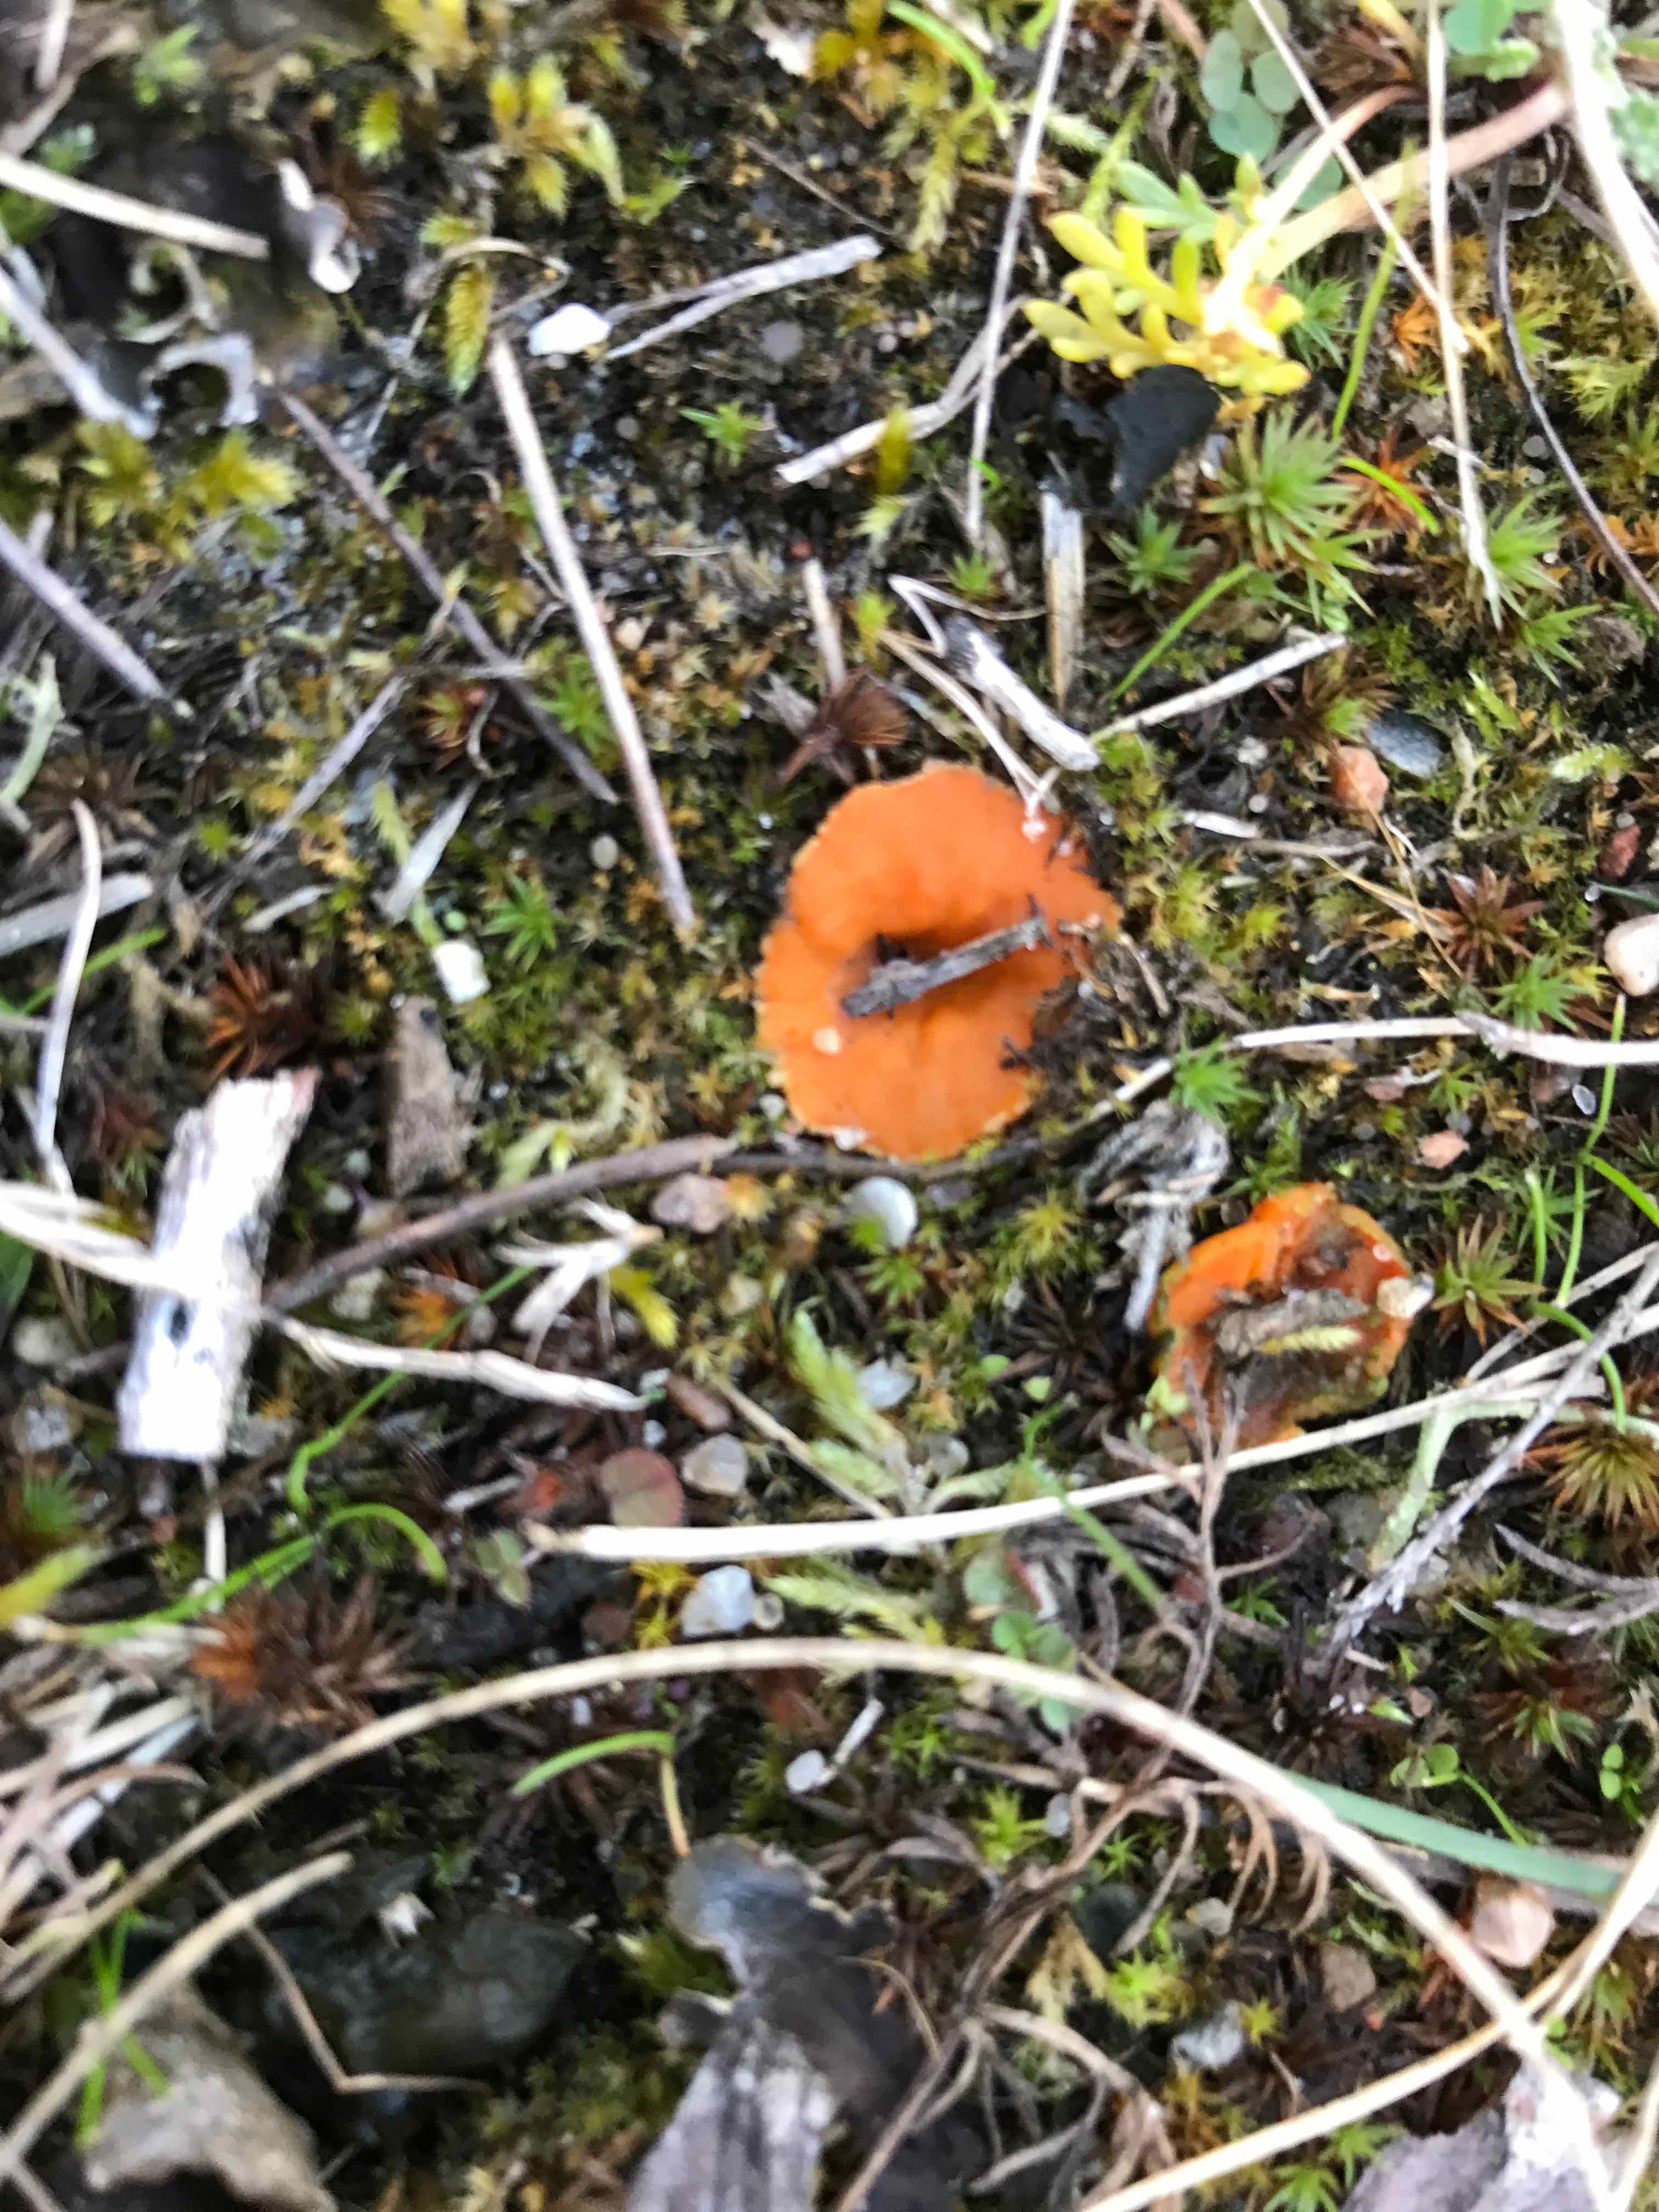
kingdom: Fungi
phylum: Ascomycota
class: Pezizomycetes
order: Pezizales
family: Pyronemataceae
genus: Neottiella
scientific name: Neottiella
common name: mosbæger
